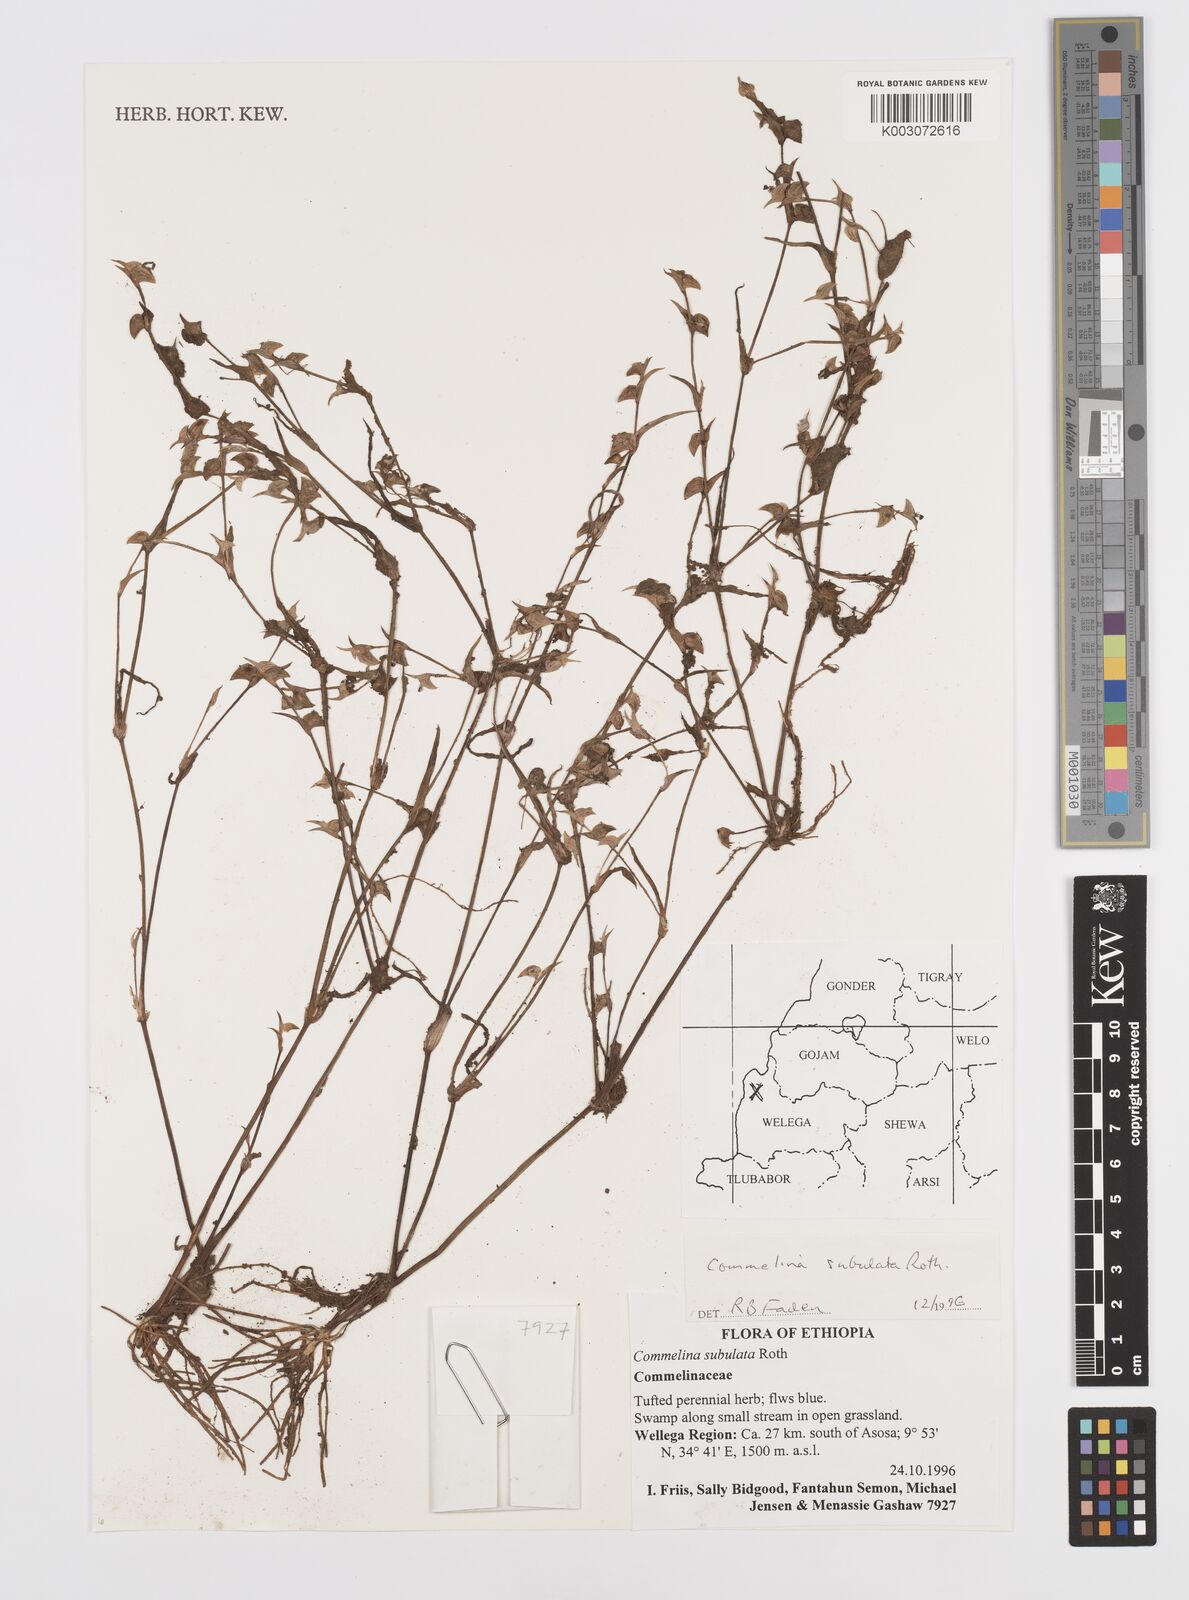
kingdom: Plantae
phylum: Tracheophyta
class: Liliopsida
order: Commelinales
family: Commelinaceae
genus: Commelina
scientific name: Commelina subulata
